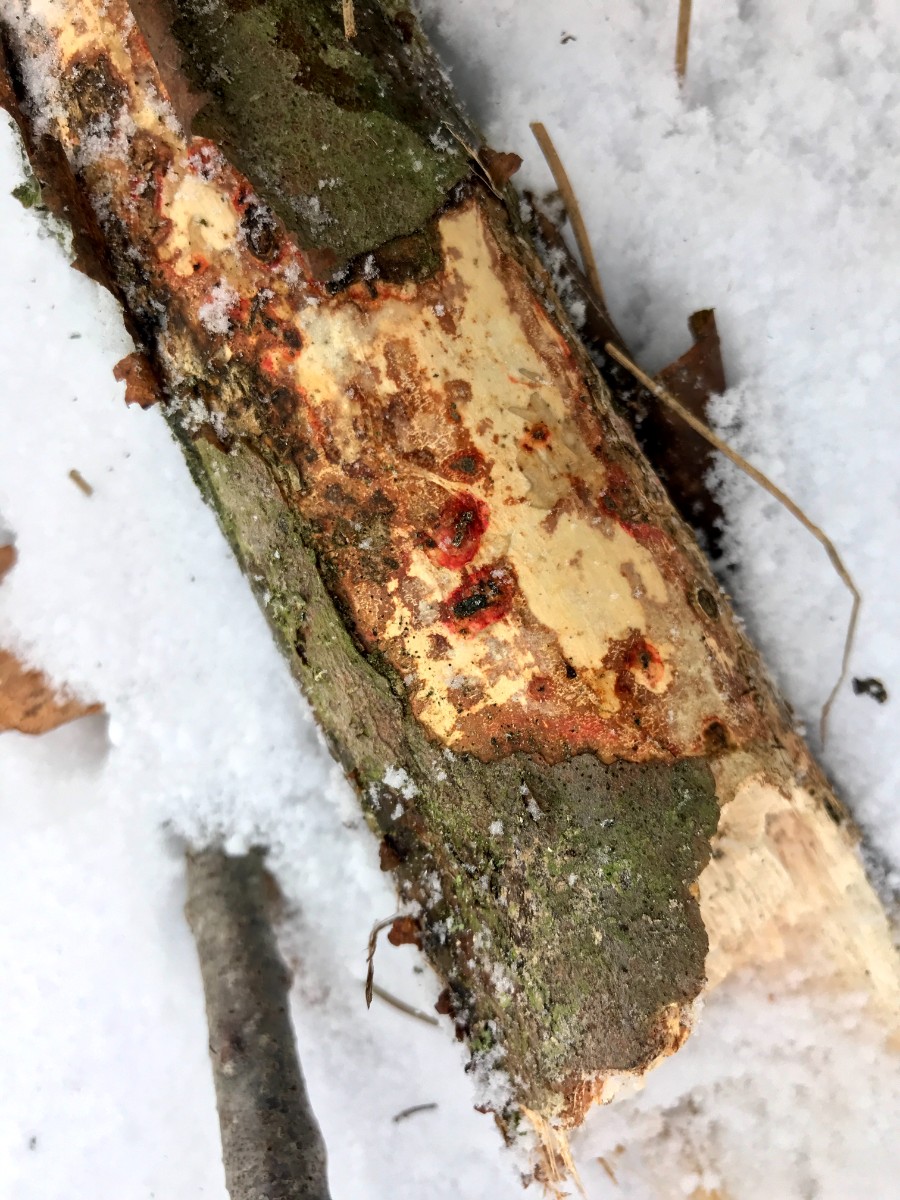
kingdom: Fungi
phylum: Basidiomycota
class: Agaricomycetes
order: Corticiales
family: Vuilleminiaceae
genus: Vuilleminia
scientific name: Vuilleminia comedens
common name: almindelig barksprænger
